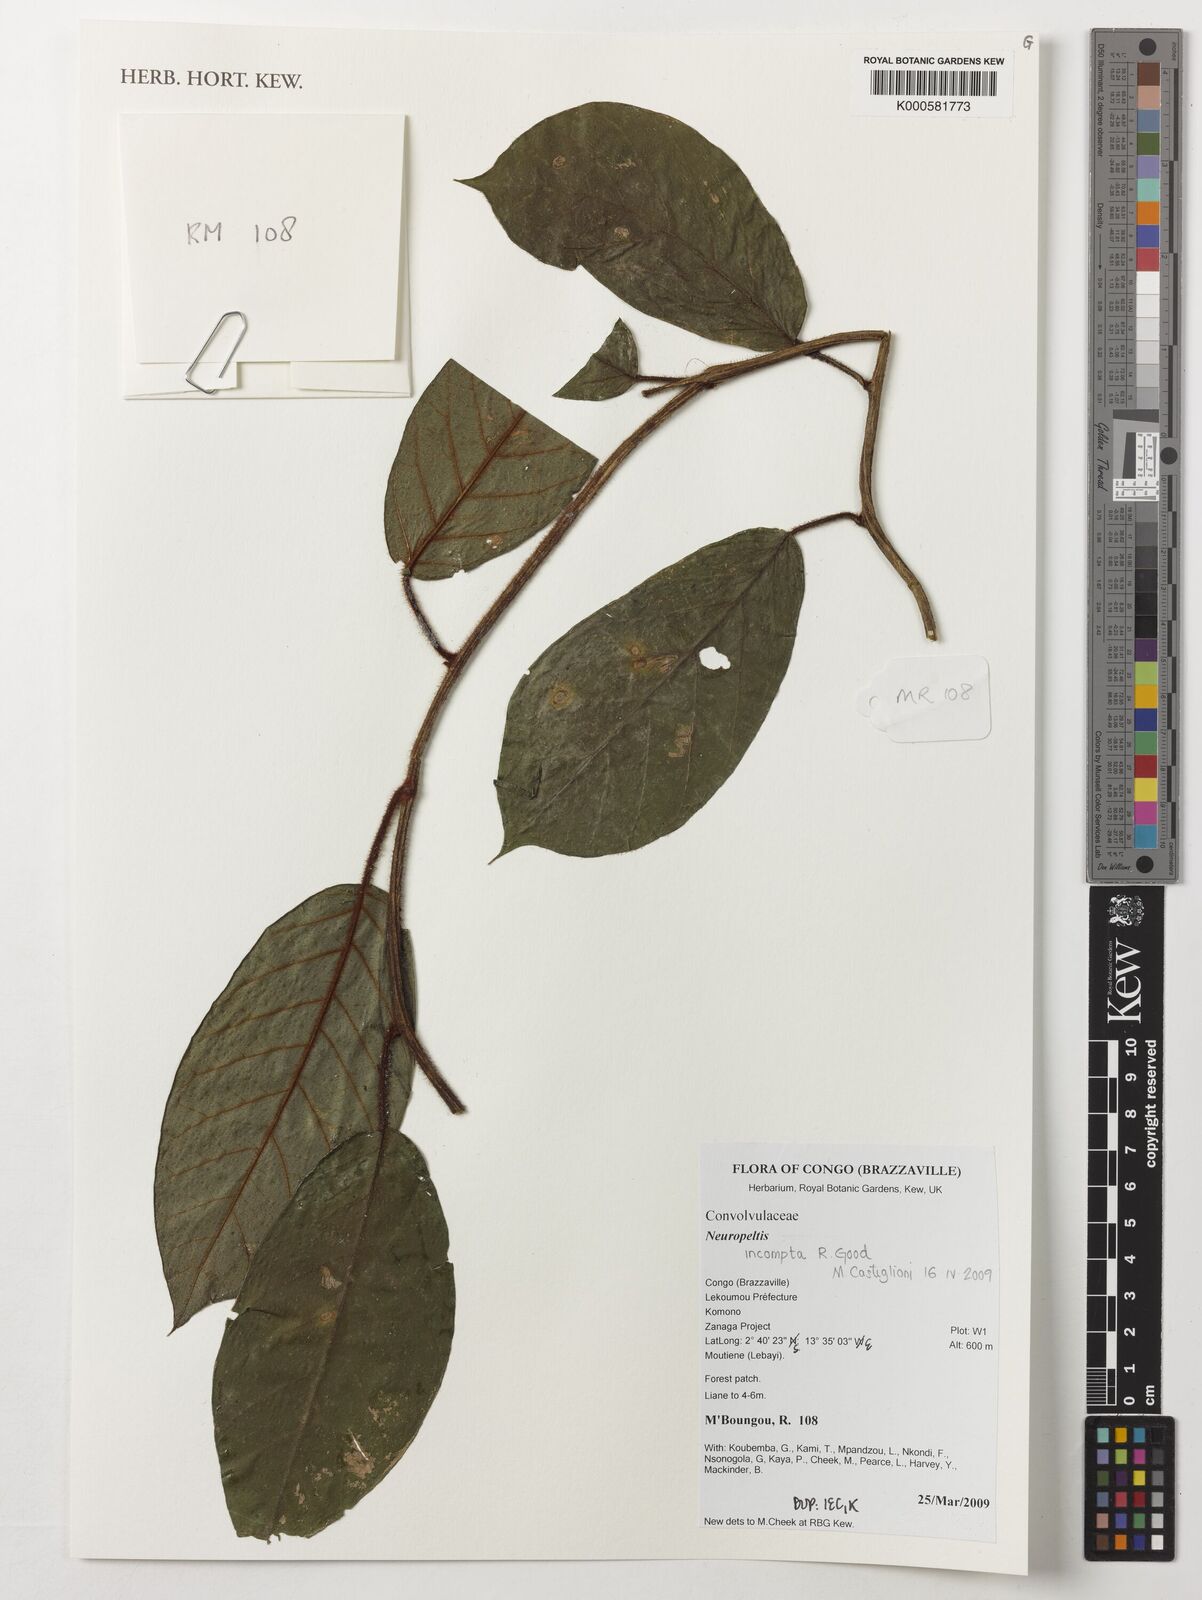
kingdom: Plantae
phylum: Tracheophyta
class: Magnoliopsida
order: Solanales
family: Convolvulaceae
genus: Neuropeltis
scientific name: Neuropeltis incompta
